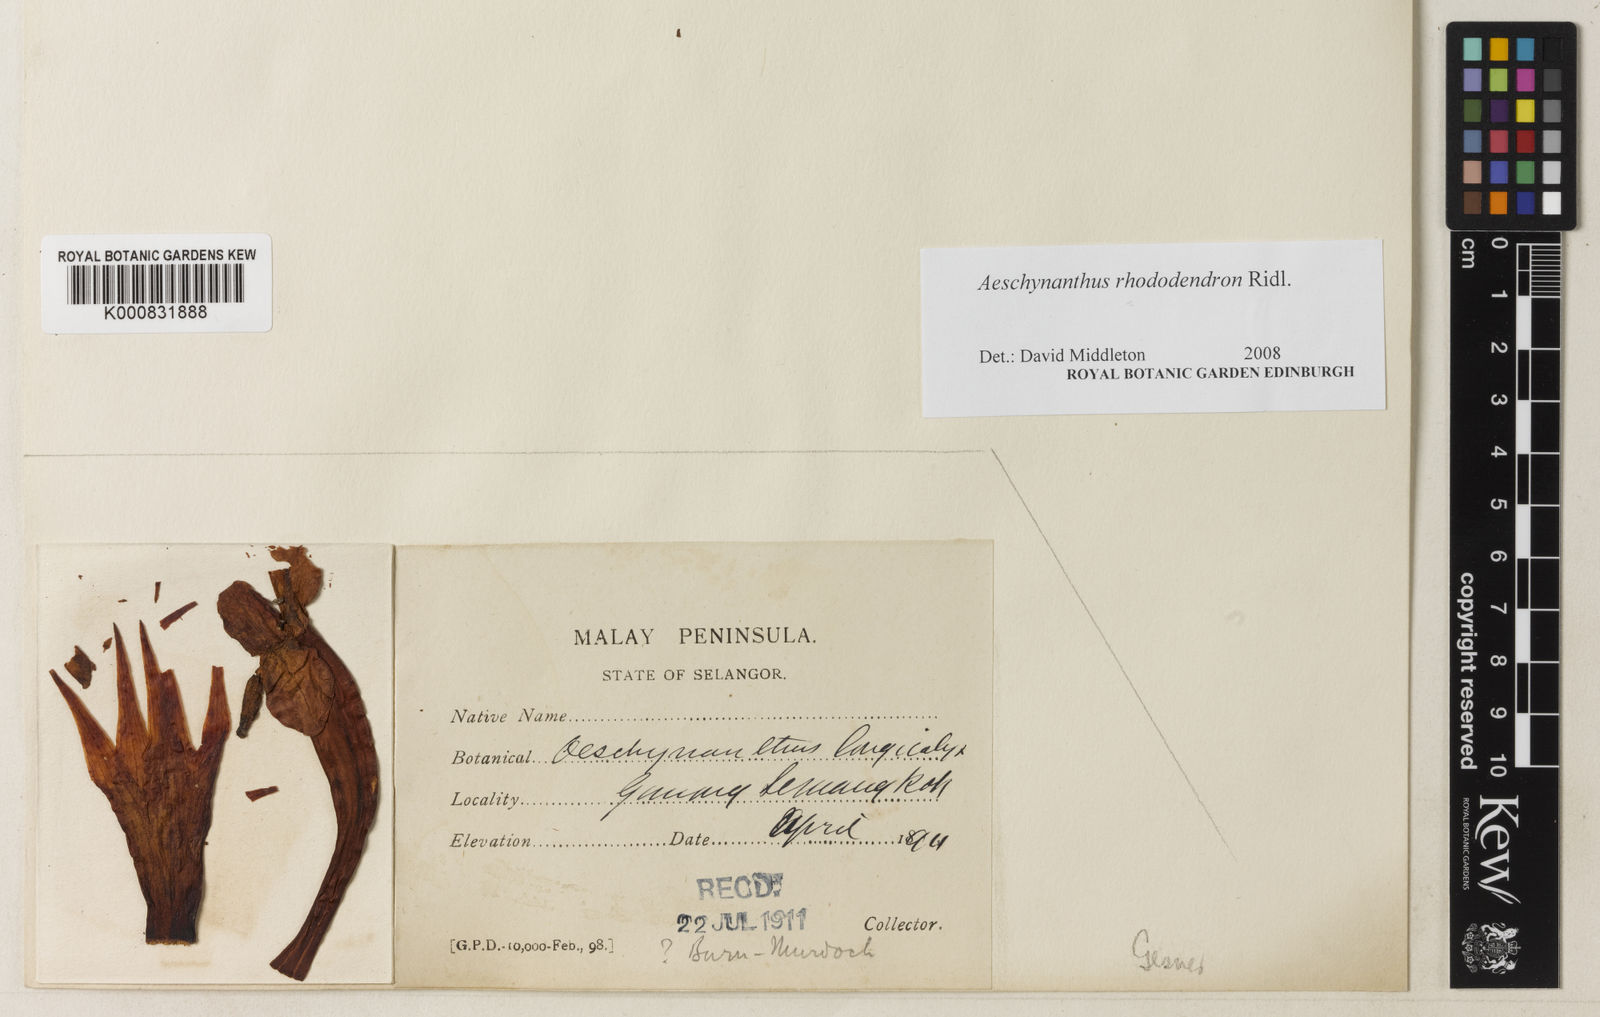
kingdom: Plantae
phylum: Tracheophyta
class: Magnoliopsida
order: Lamiales
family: Gesneriaceae
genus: Aeschynanthus
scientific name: Aeschynanthus rhododendron
